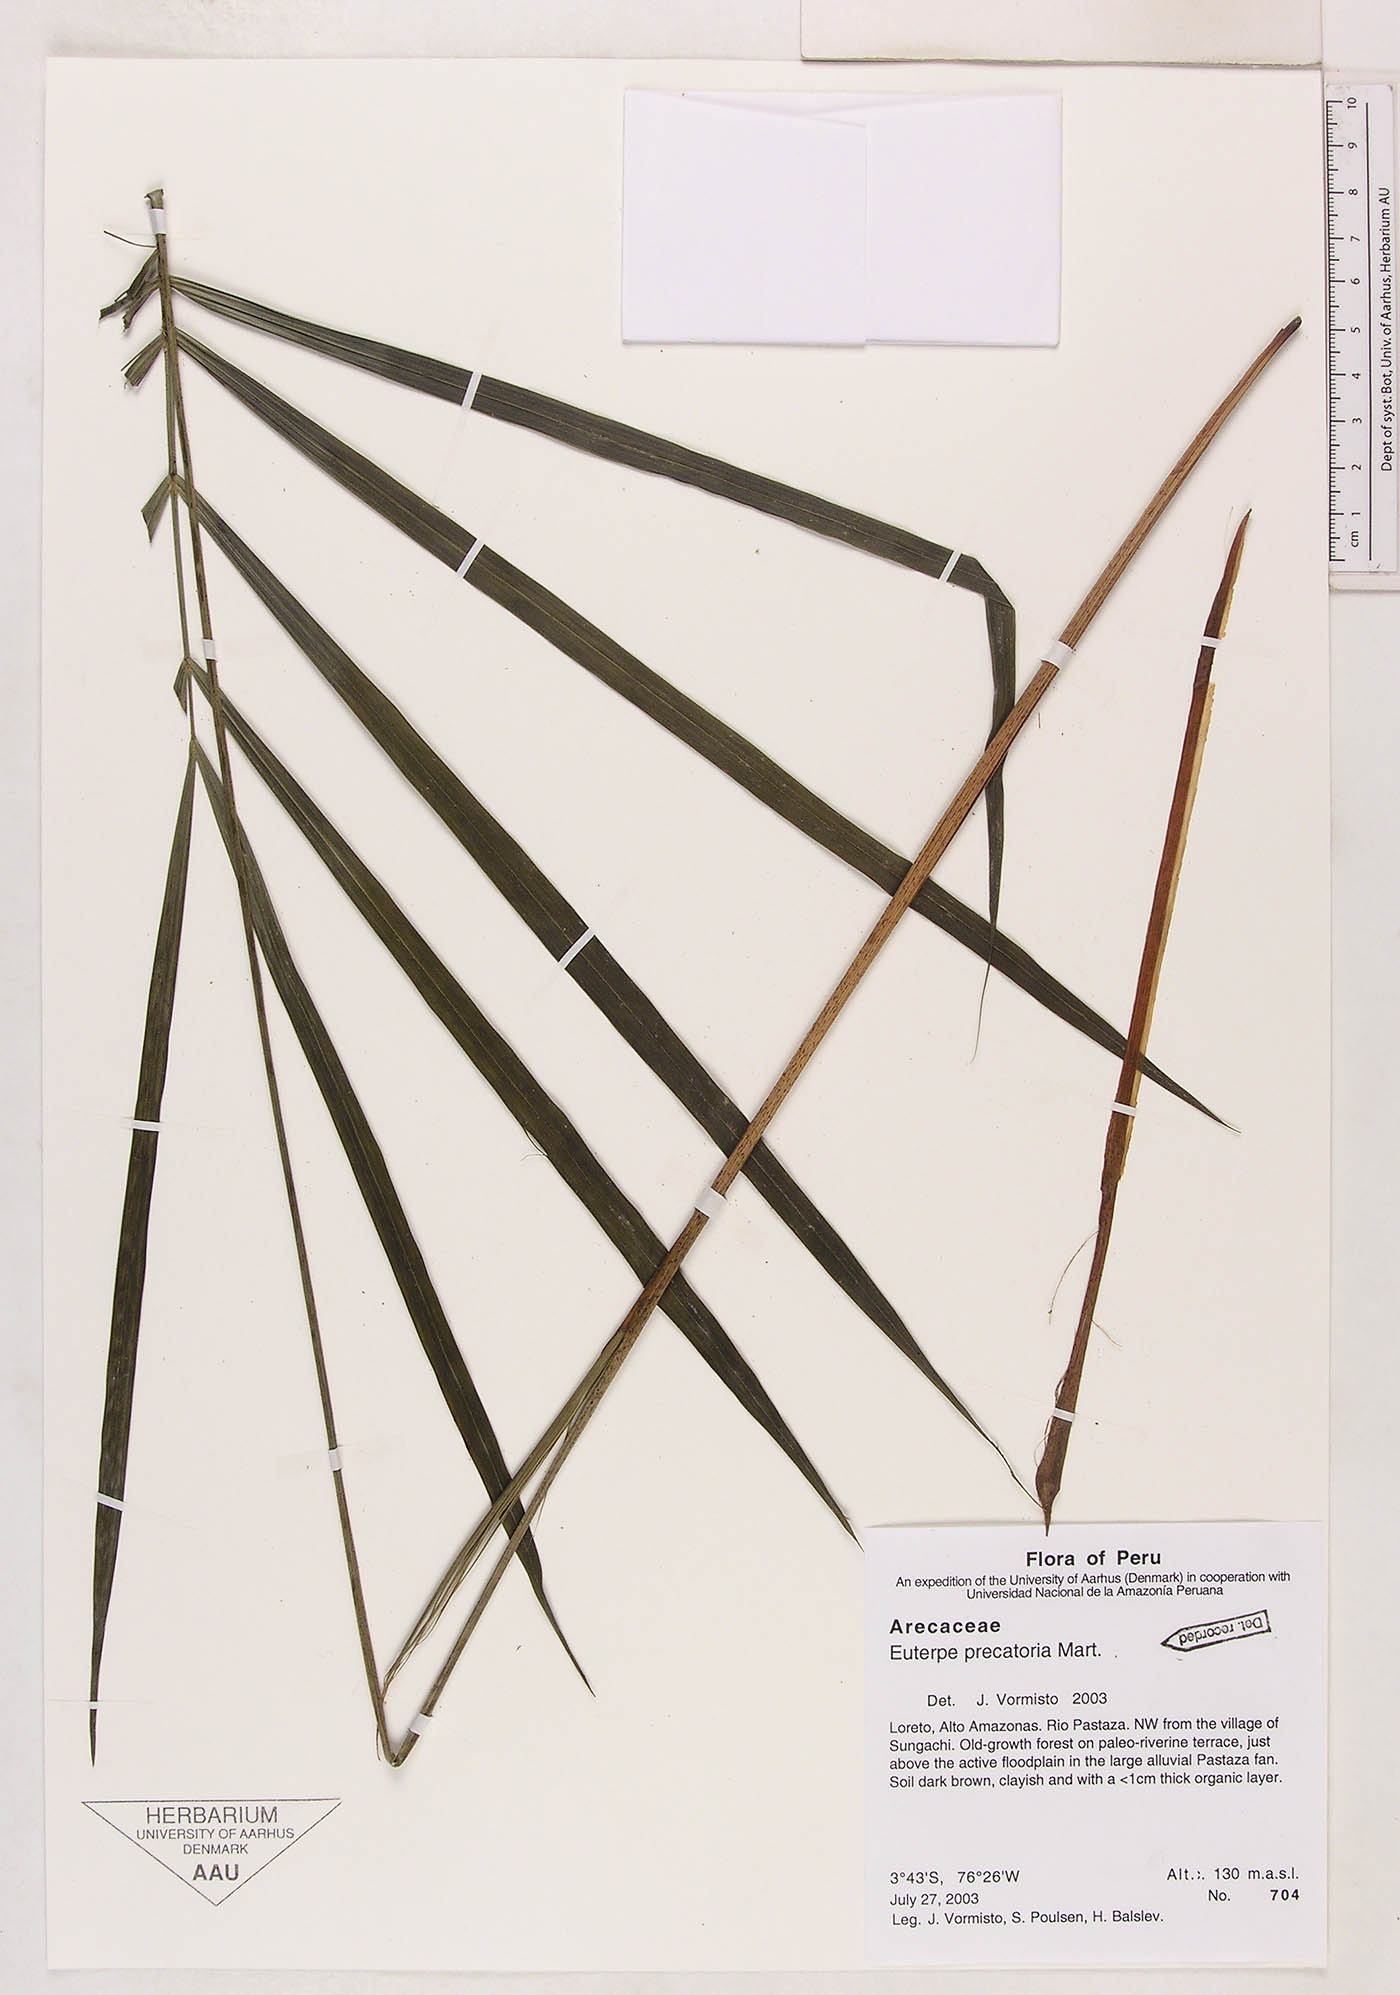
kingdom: Plantae
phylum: Tracheophyta
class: Liliopsida
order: Arecales
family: Arecaceae
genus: Euterpe
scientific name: Euterpe precatoria
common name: Mountain-cabbage
